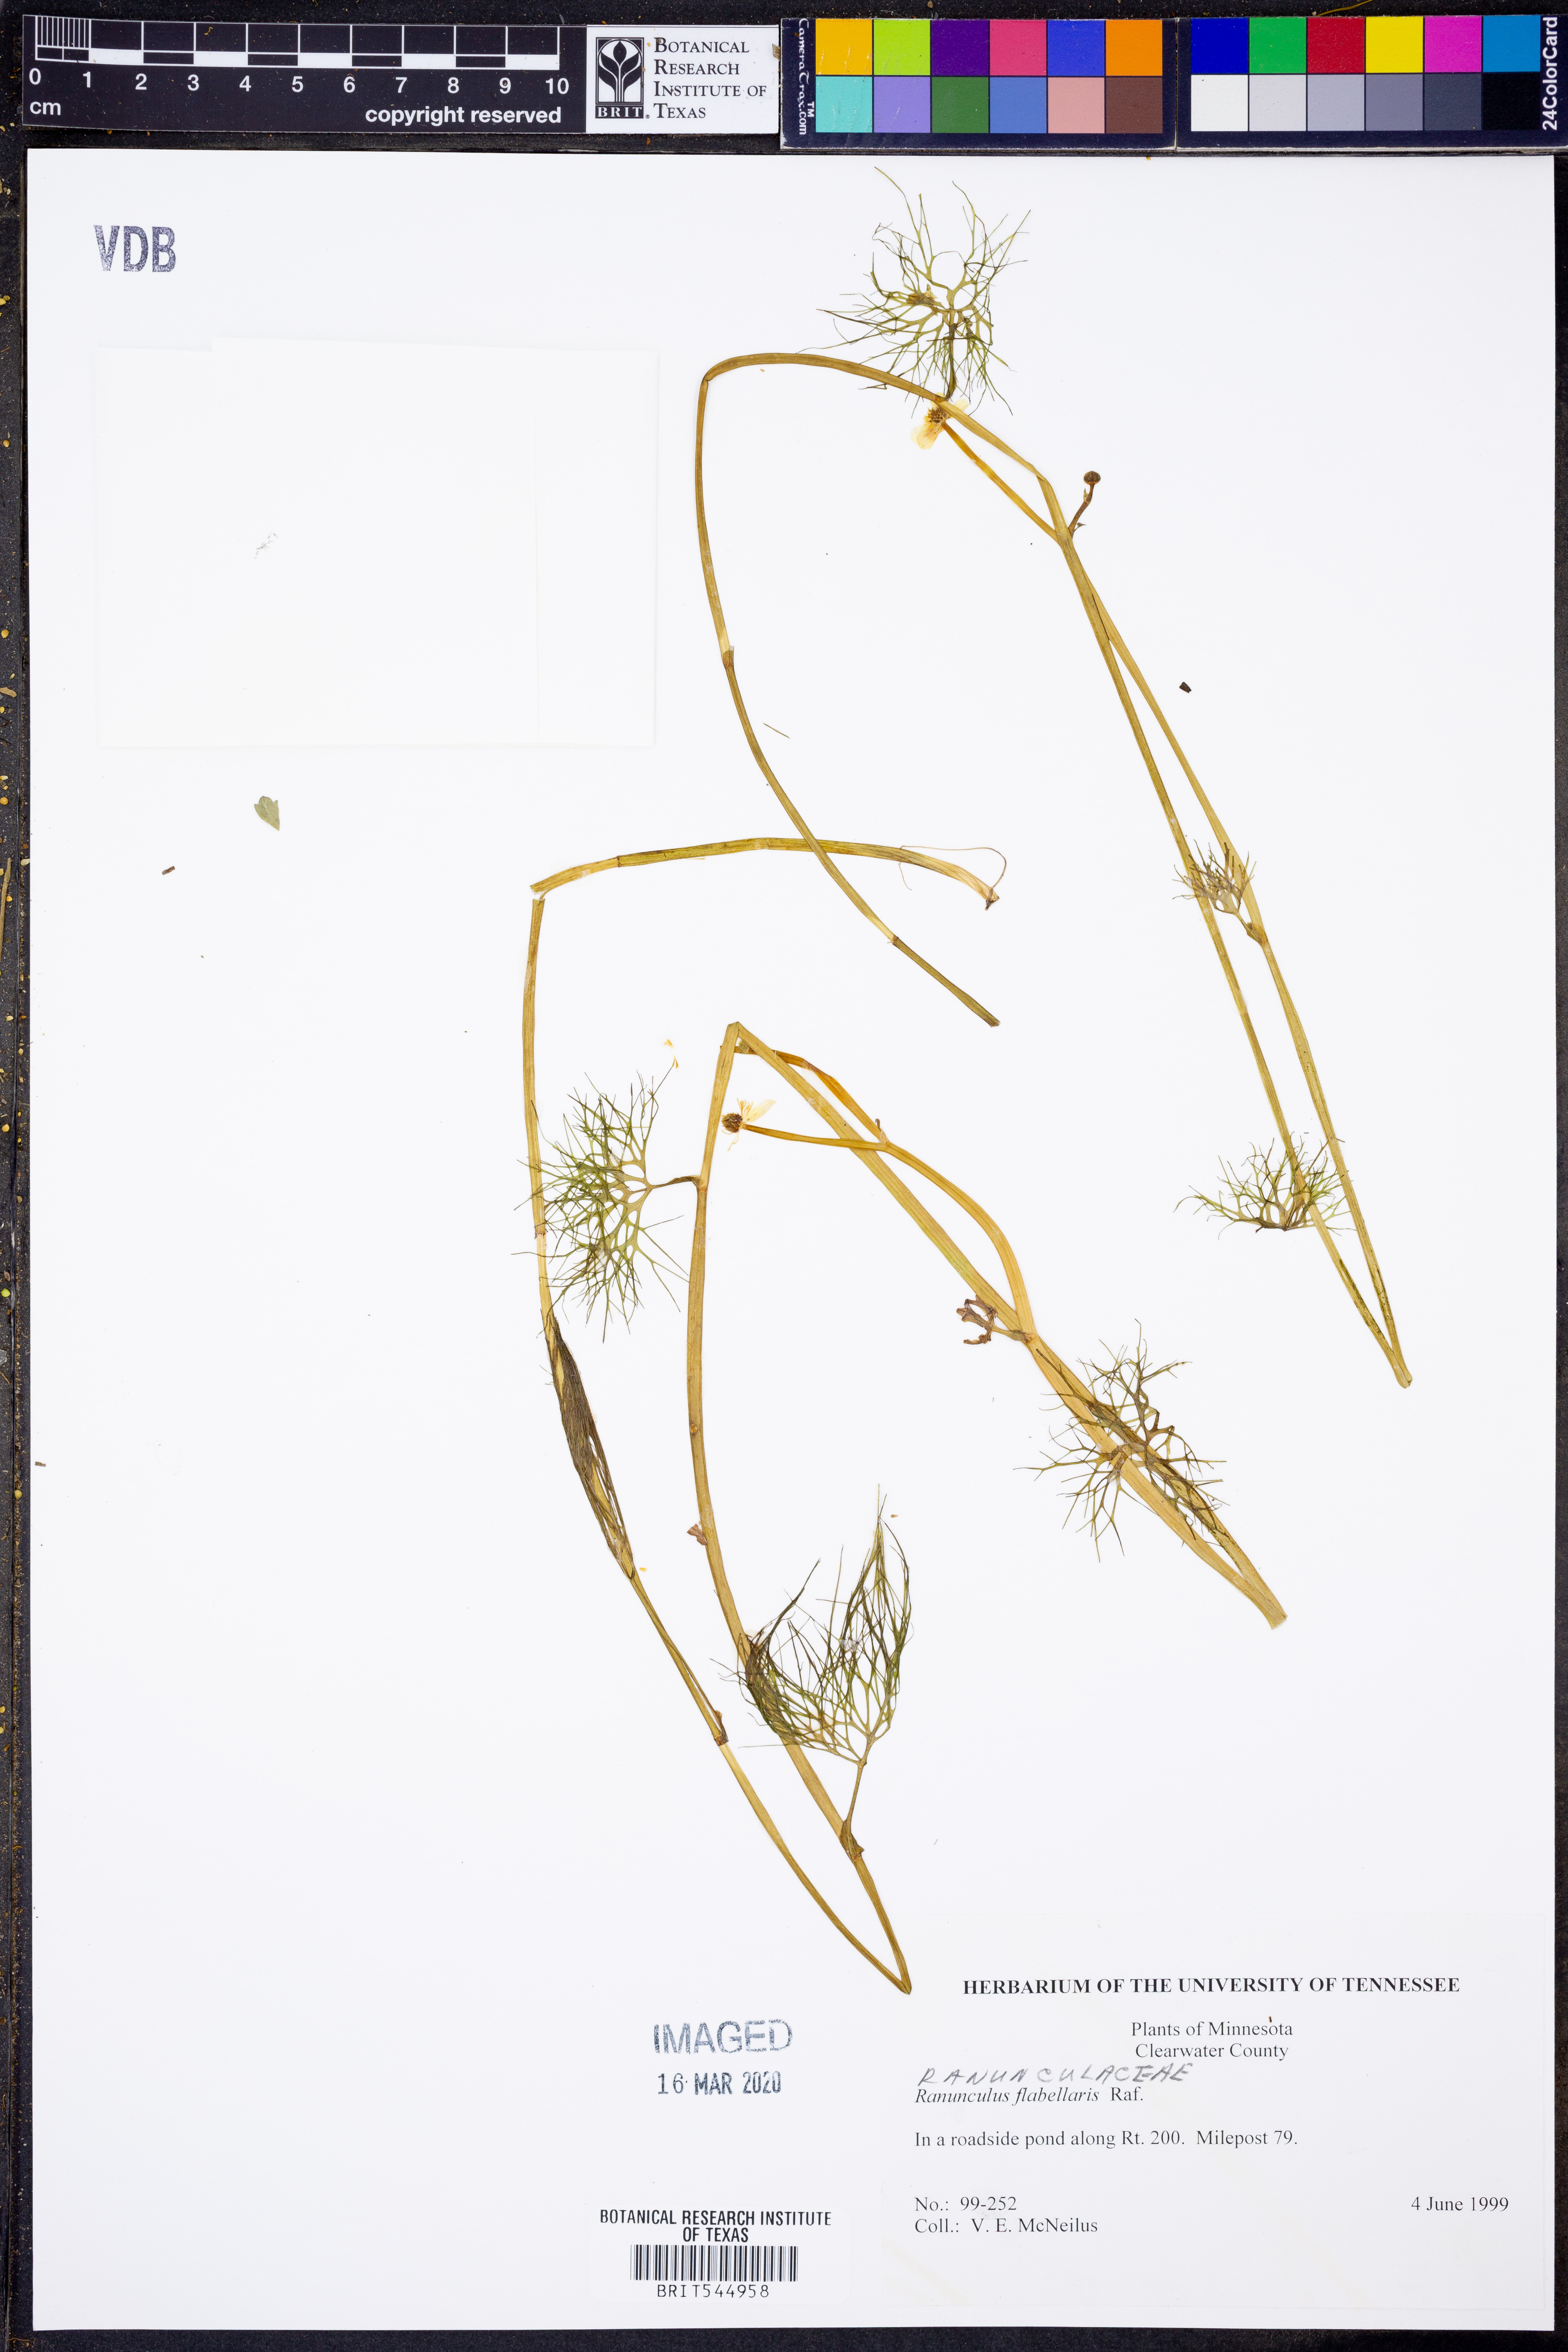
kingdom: Plantae
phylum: Tracheophyta
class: Magnoliopsida
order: Ranunculales
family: Ranunculaceae
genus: Ranunculus
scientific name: Ranunculus flabellaris
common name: Yellow water-crowfoot
